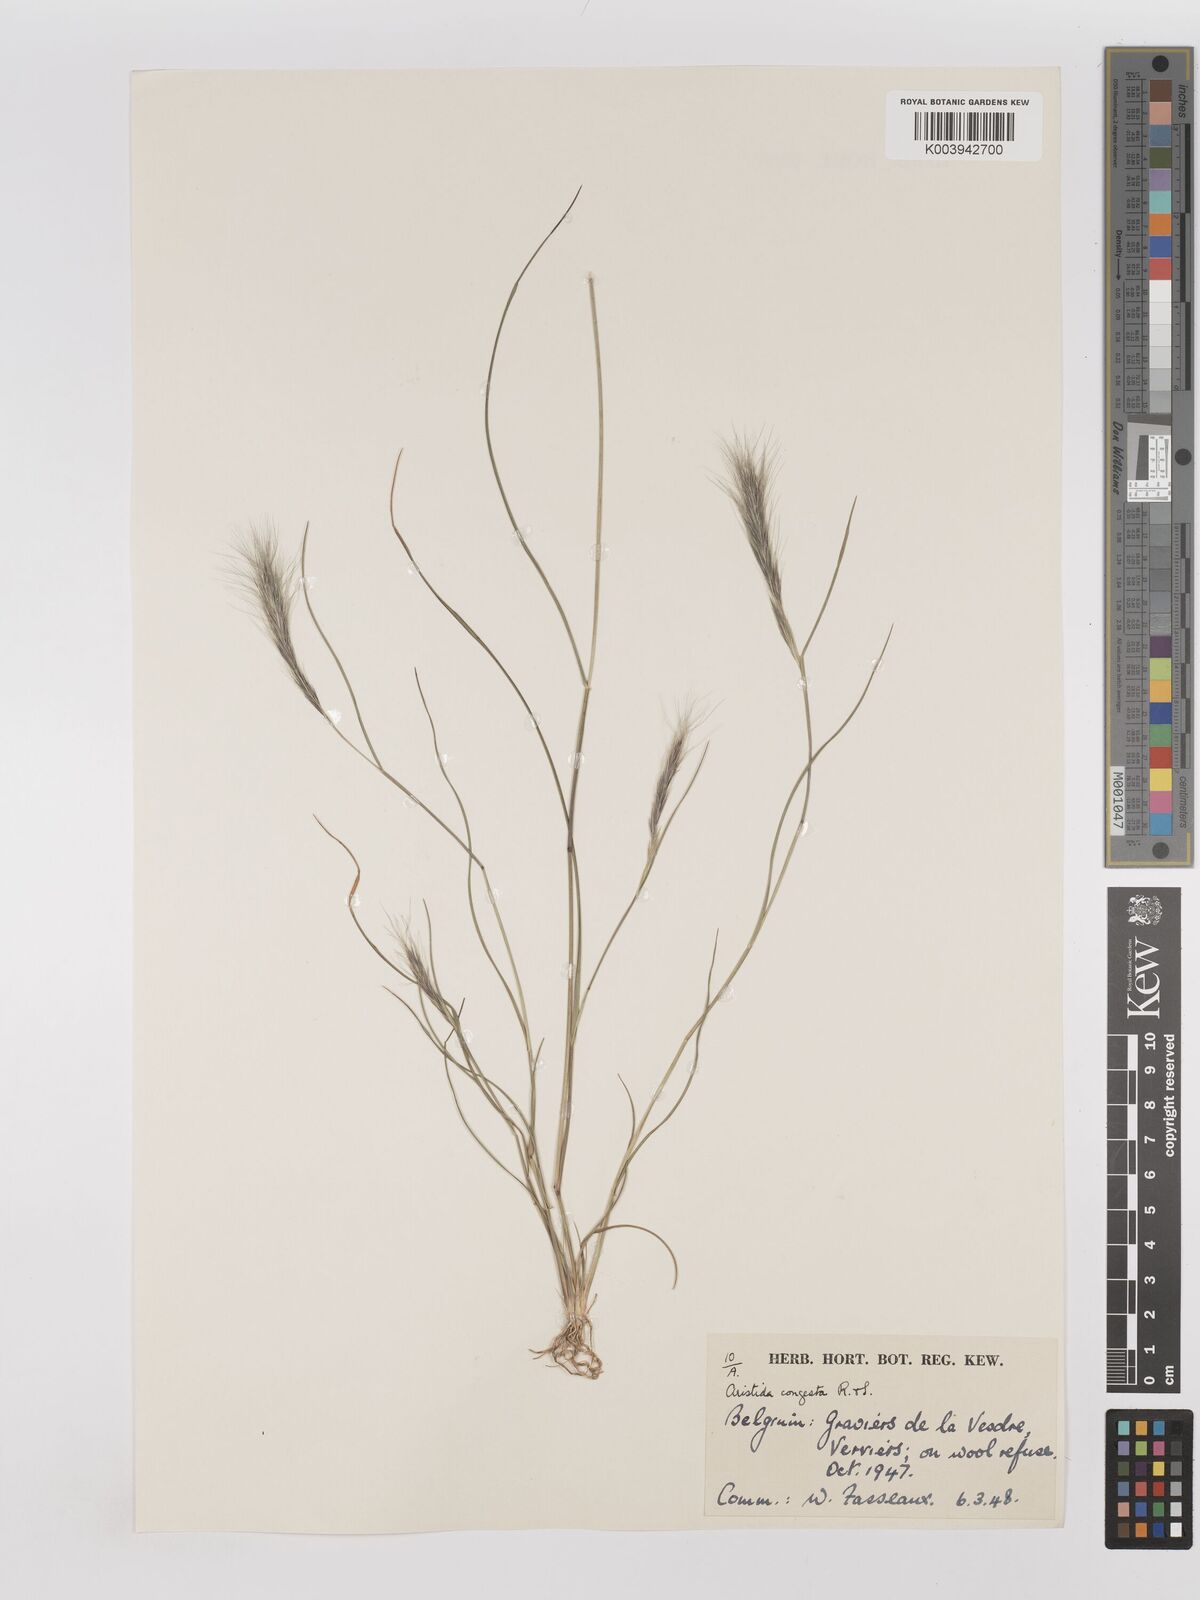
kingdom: Plantae
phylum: Tracheophyta
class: Liliopsida
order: Poales
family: Poaceae
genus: Aristida
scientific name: Aristida congesta
